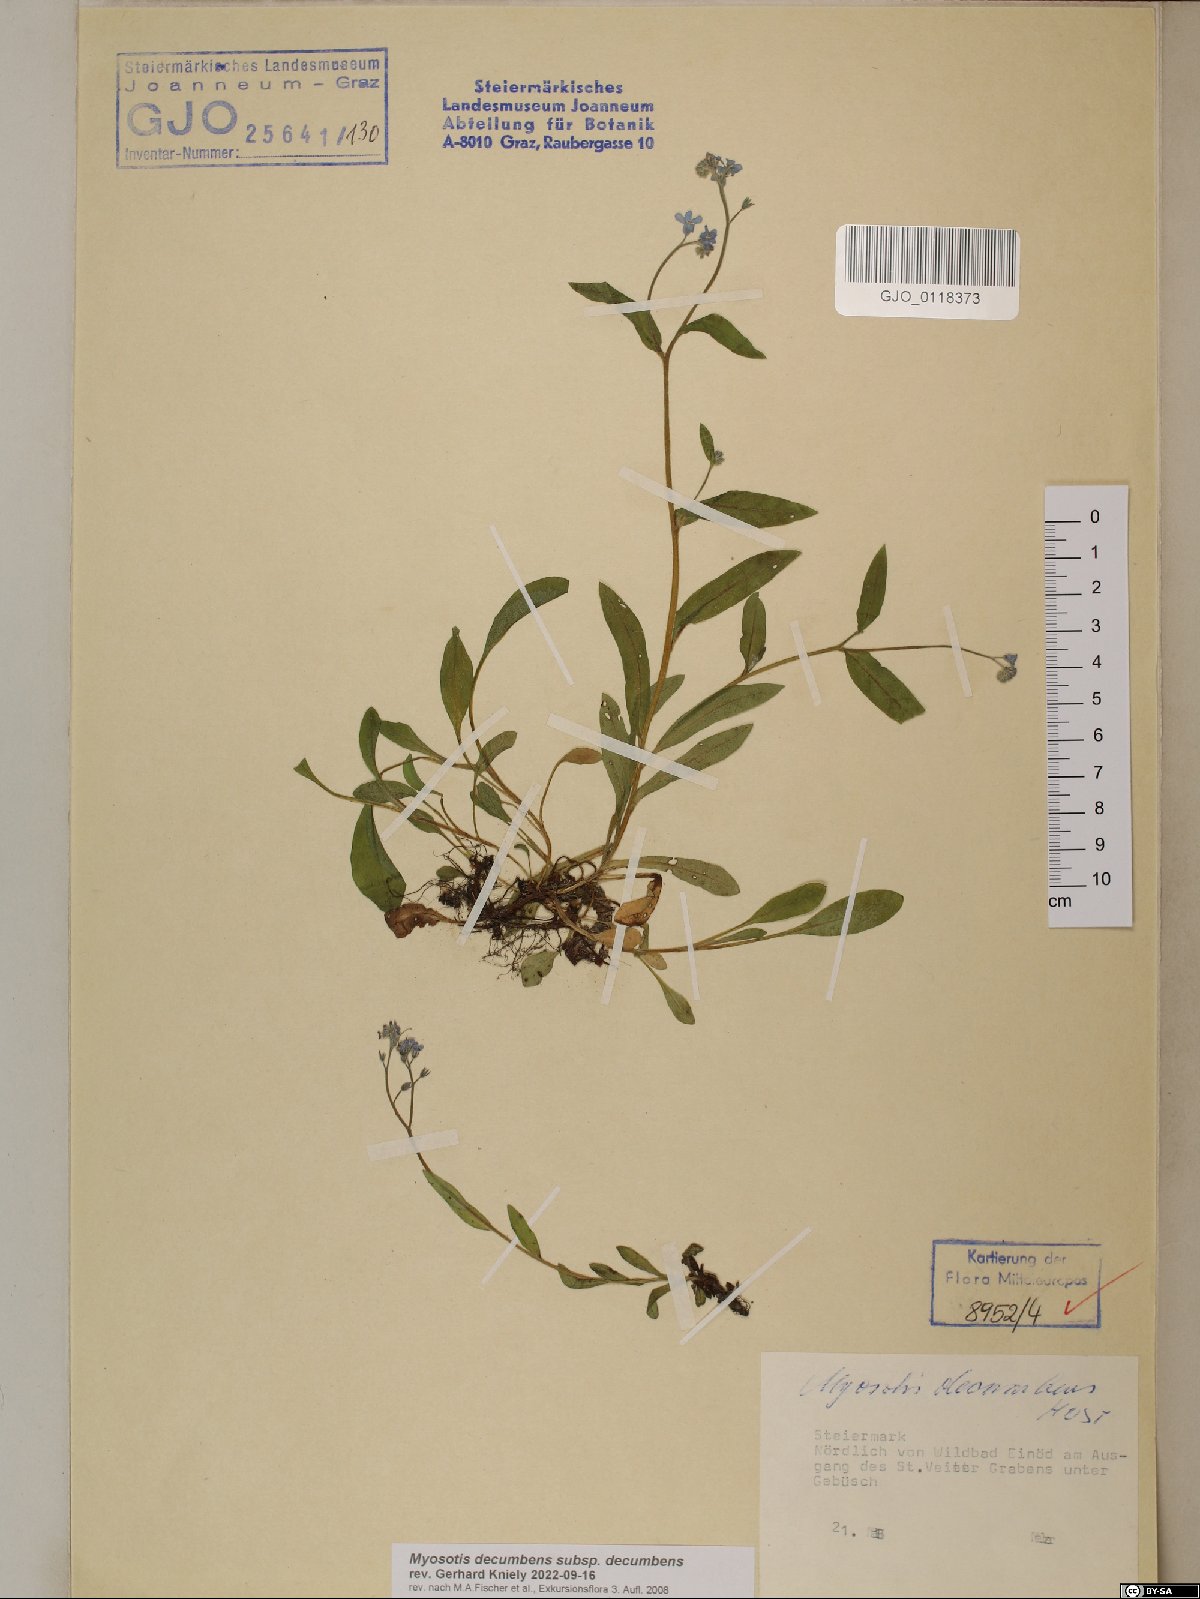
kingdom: Plantae
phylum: Tracheophyta
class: Magnoliopsida
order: Boraginales
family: Boraginaceae
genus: Myosotis
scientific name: Myosotis decumbens
